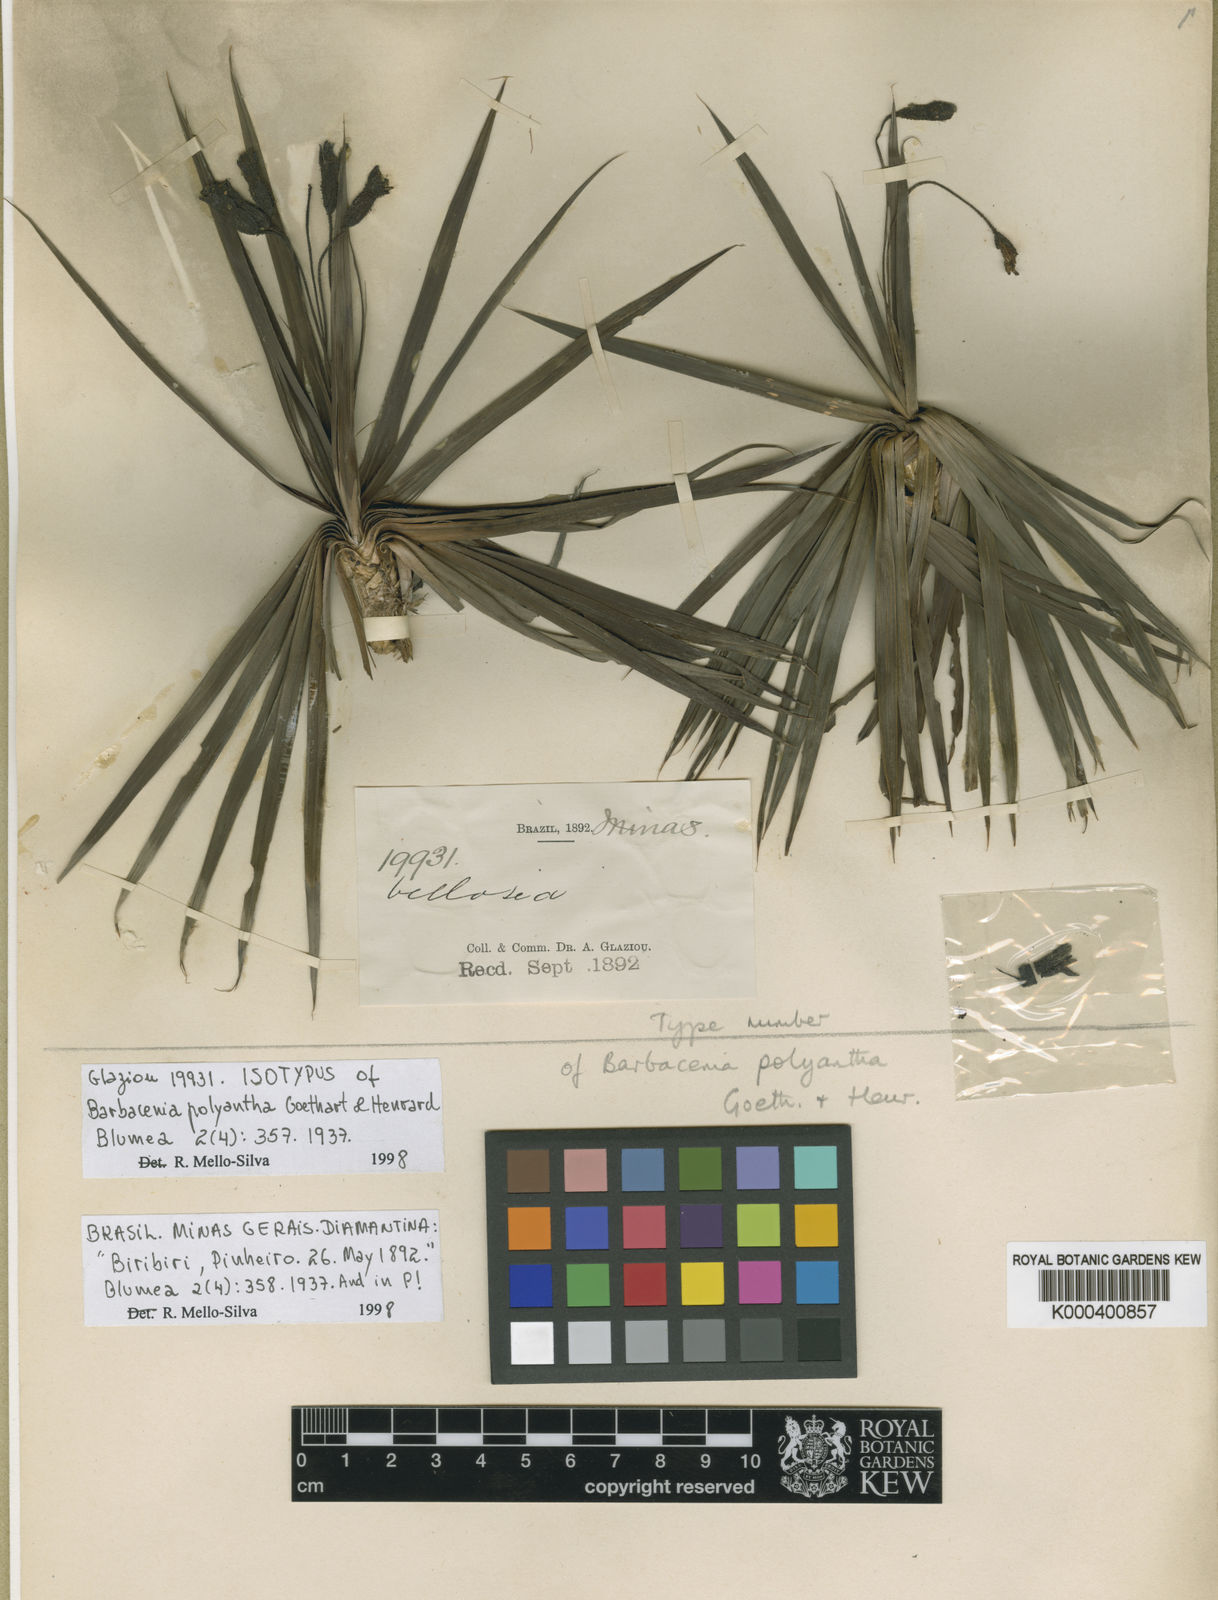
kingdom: Plantae
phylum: Tracheophyta
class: Liliopsida
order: Pandanales
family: Velloziaceae
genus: Barbacenia
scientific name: Barbacenia polyantha
